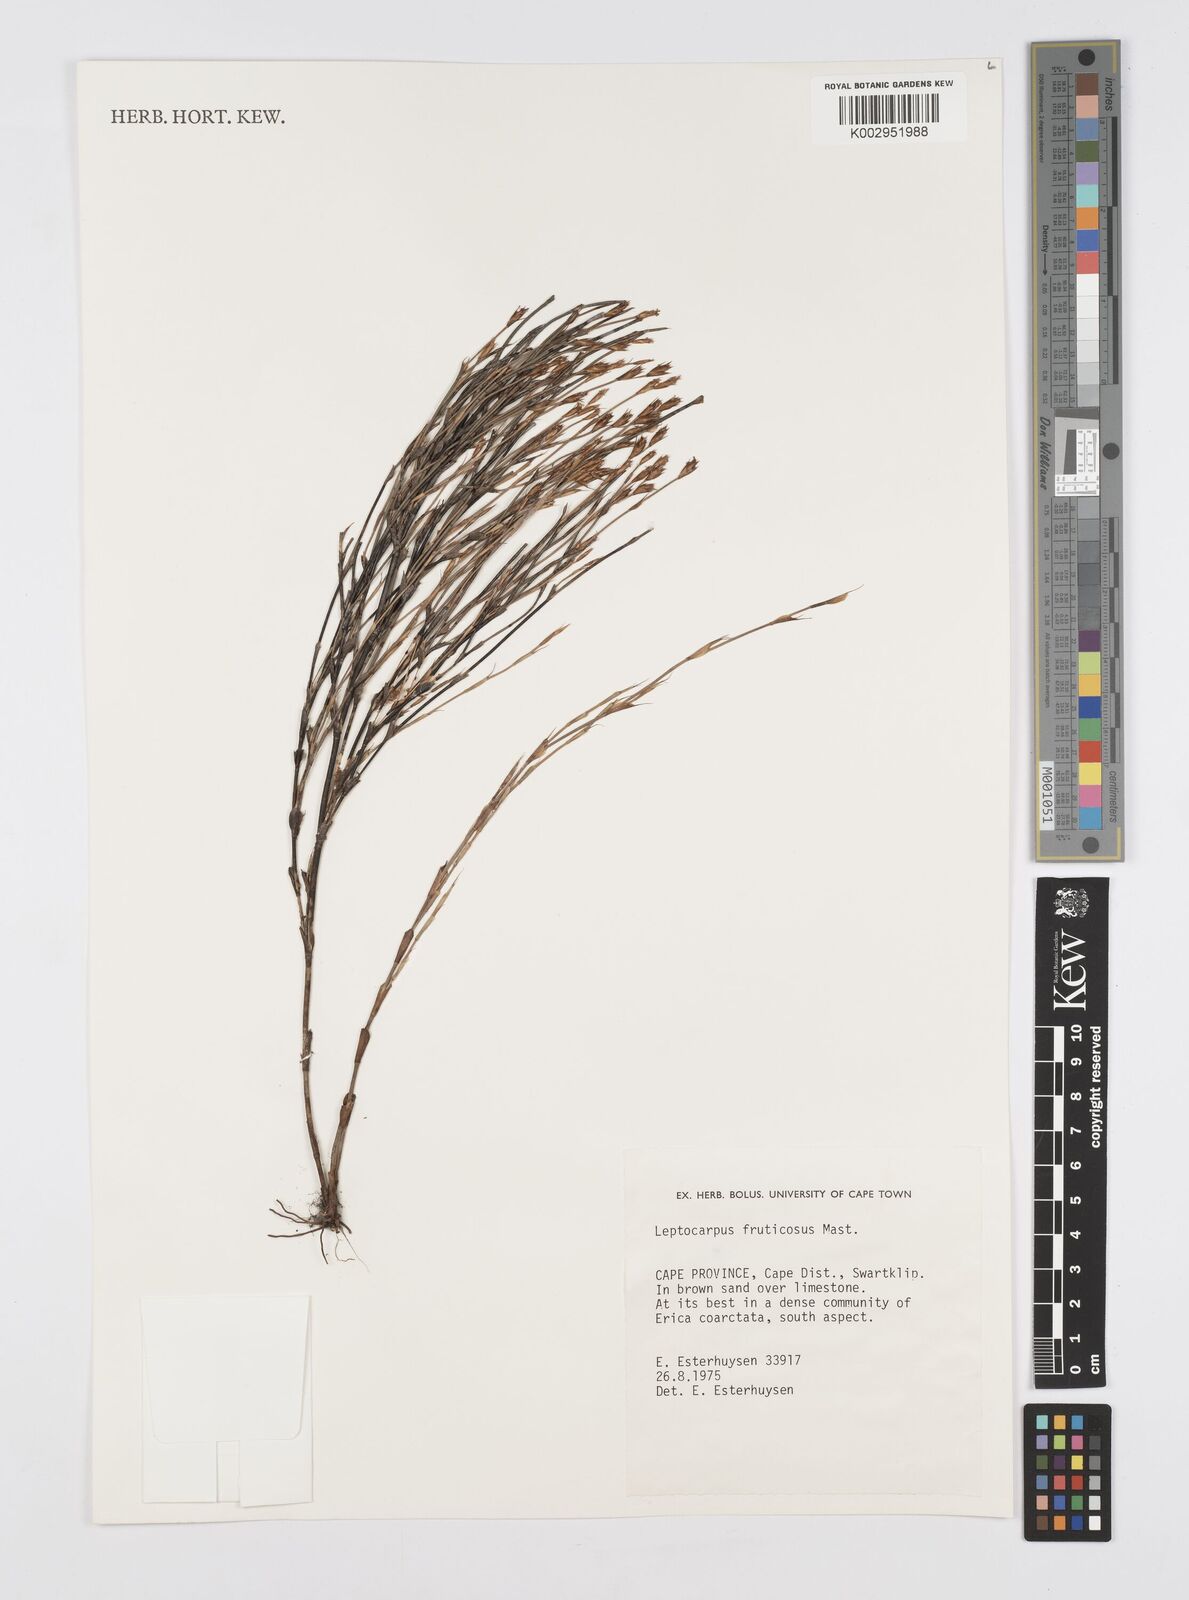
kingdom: Plantae
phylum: Tracheophyta
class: Liliopsida
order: Poales
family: Restionaceae
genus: Rhodocoma
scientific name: Rhodocoma fruticosa
